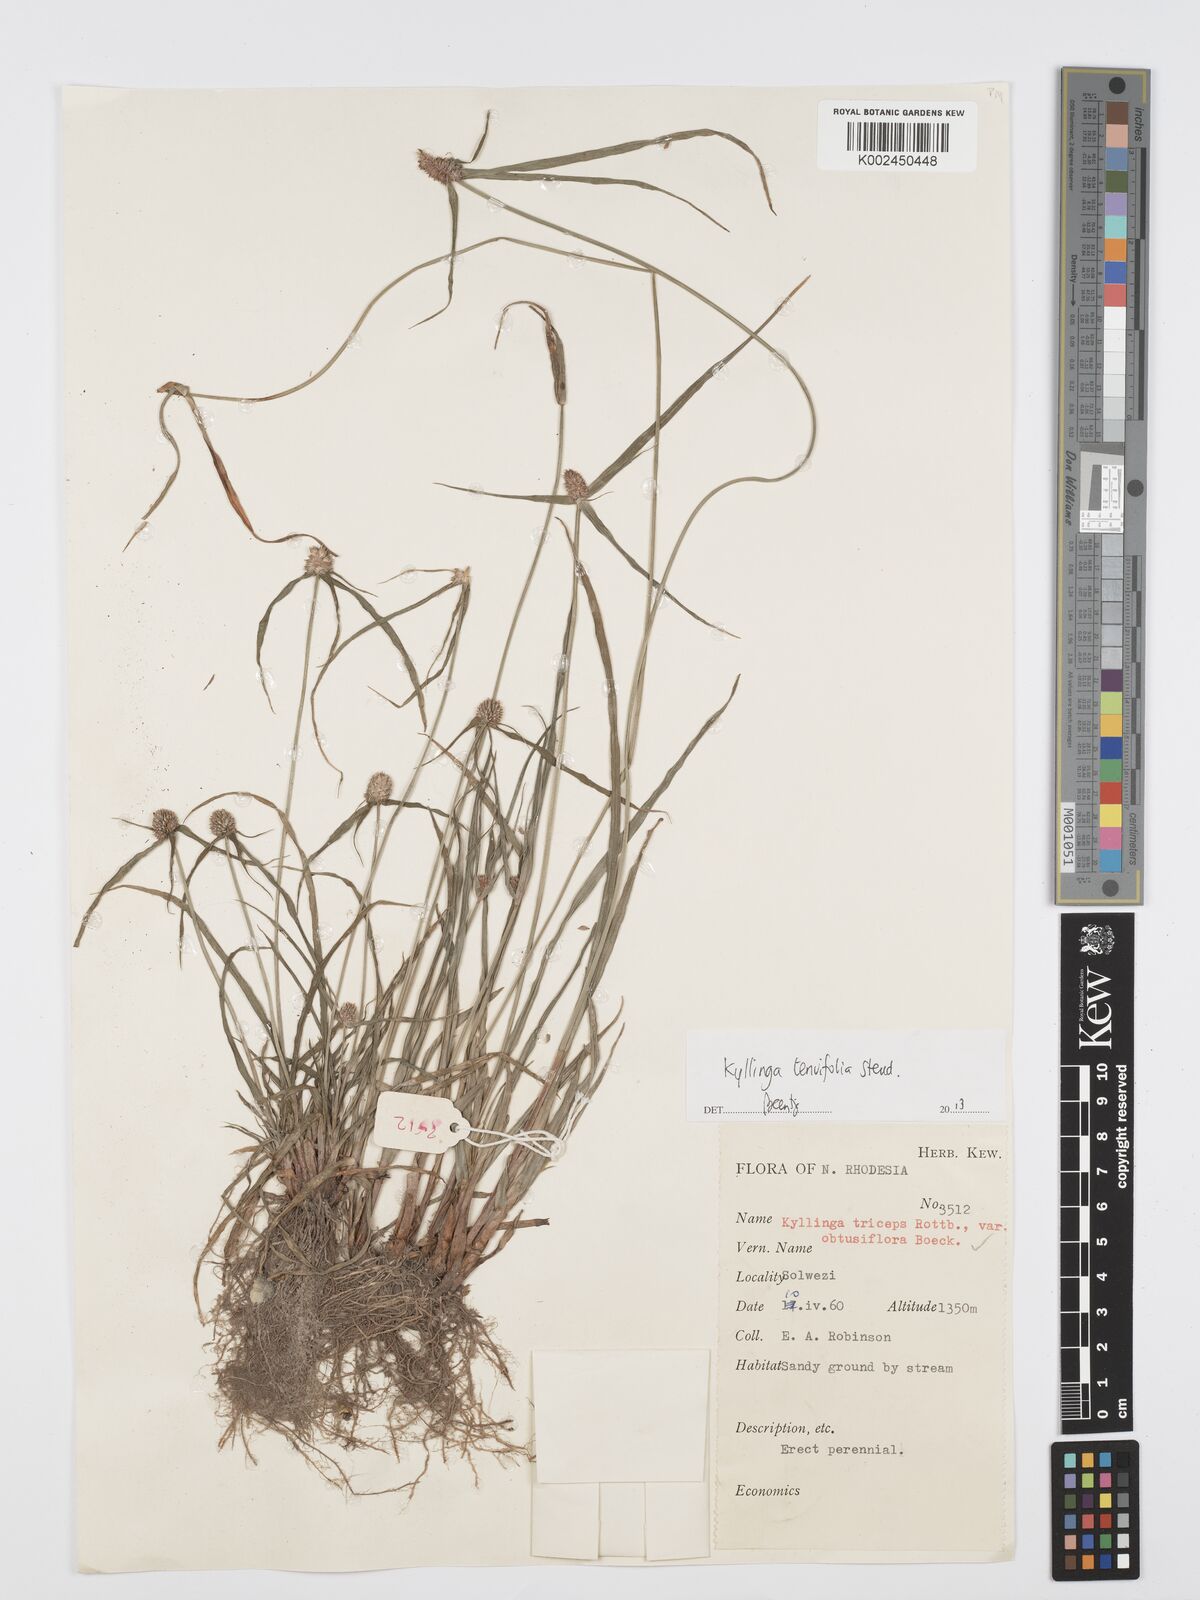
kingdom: Plantae
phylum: Tracheophyta
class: Liliopsida
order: Poales
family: Cyperaceae
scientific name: Cyperaceae
